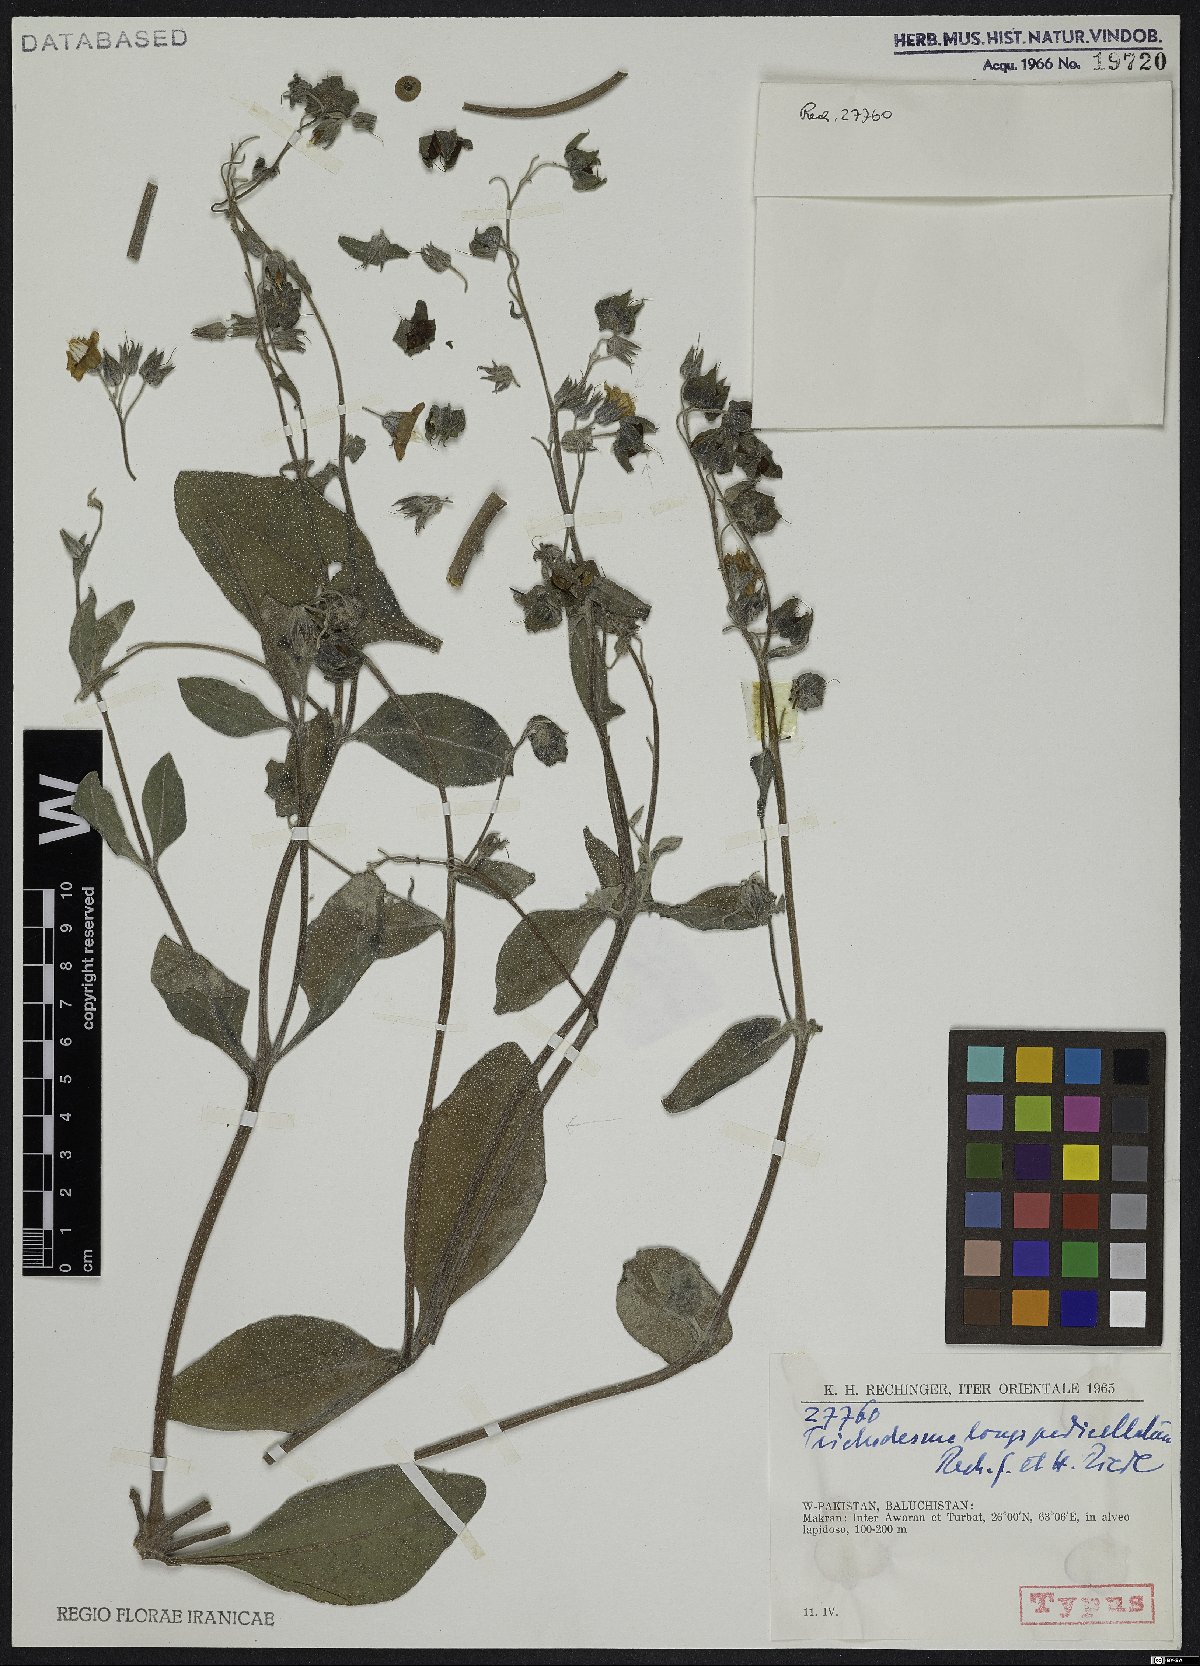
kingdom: Plantae
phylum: Tracheophyta
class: Magnoliopsida
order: Boraginales
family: Boraginaceae
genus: Trichodesma
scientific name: Trichodesma stocksii
